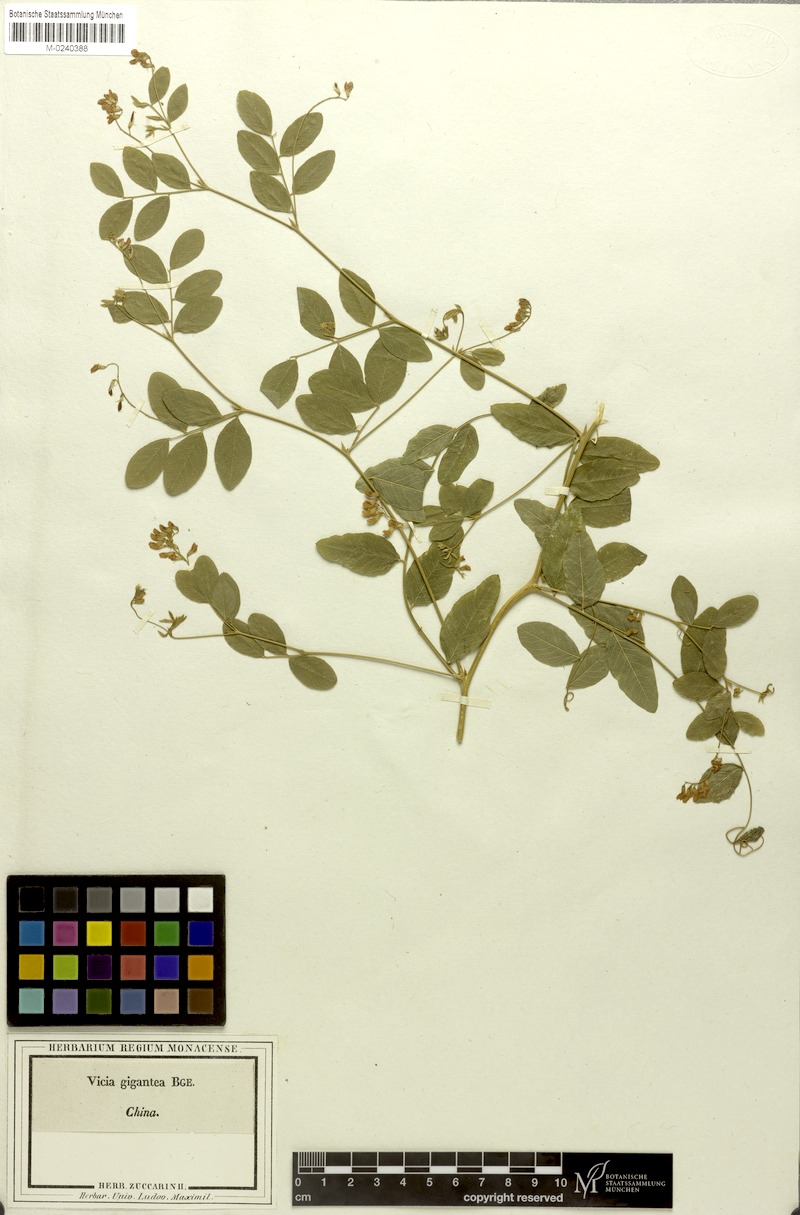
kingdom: Plantae
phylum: Tracheophyta
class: Magnoliopsida
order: Fabales
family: Fabaceae
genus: Vicia
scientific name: Vicia ramosissima
